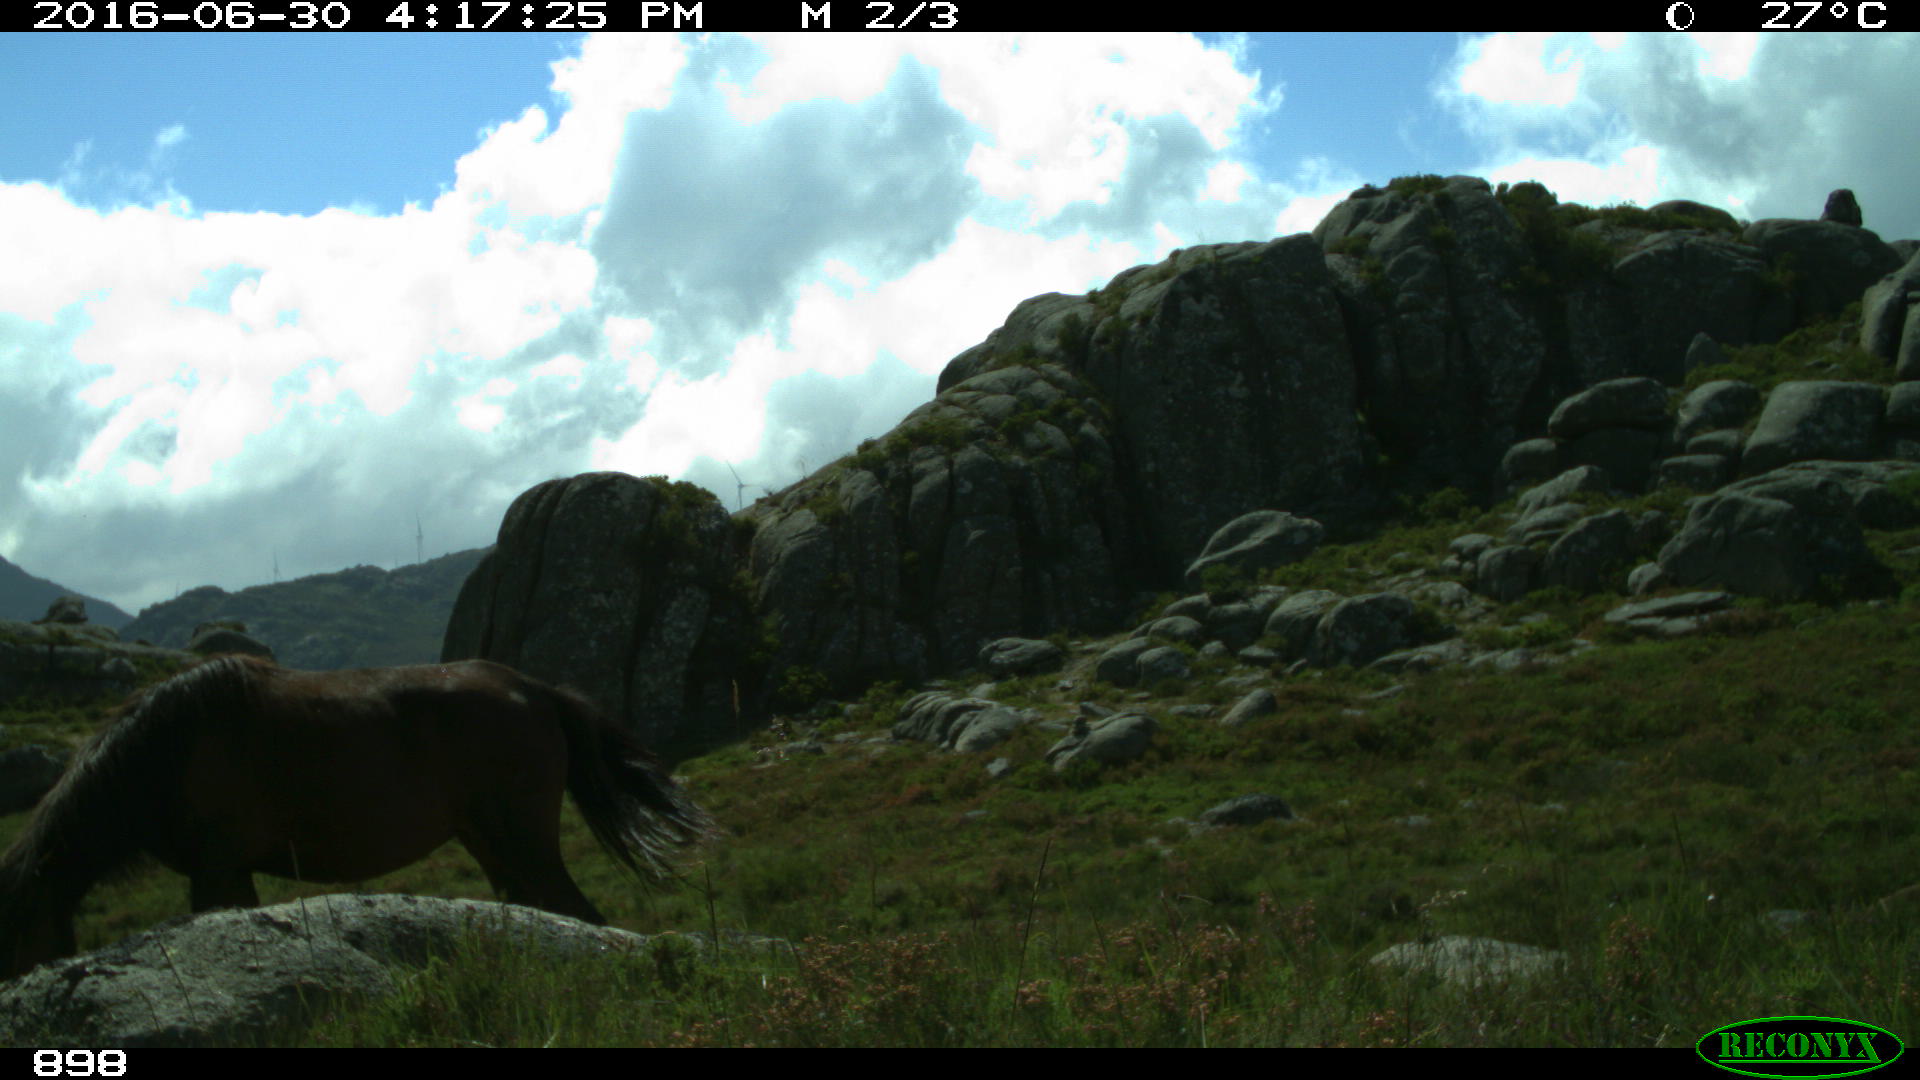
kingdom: Animalia
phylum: Chordata
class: Mammalia
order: Perissodactyla
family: Equidae
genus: Equus
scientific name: Equus caballus
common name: Horse
